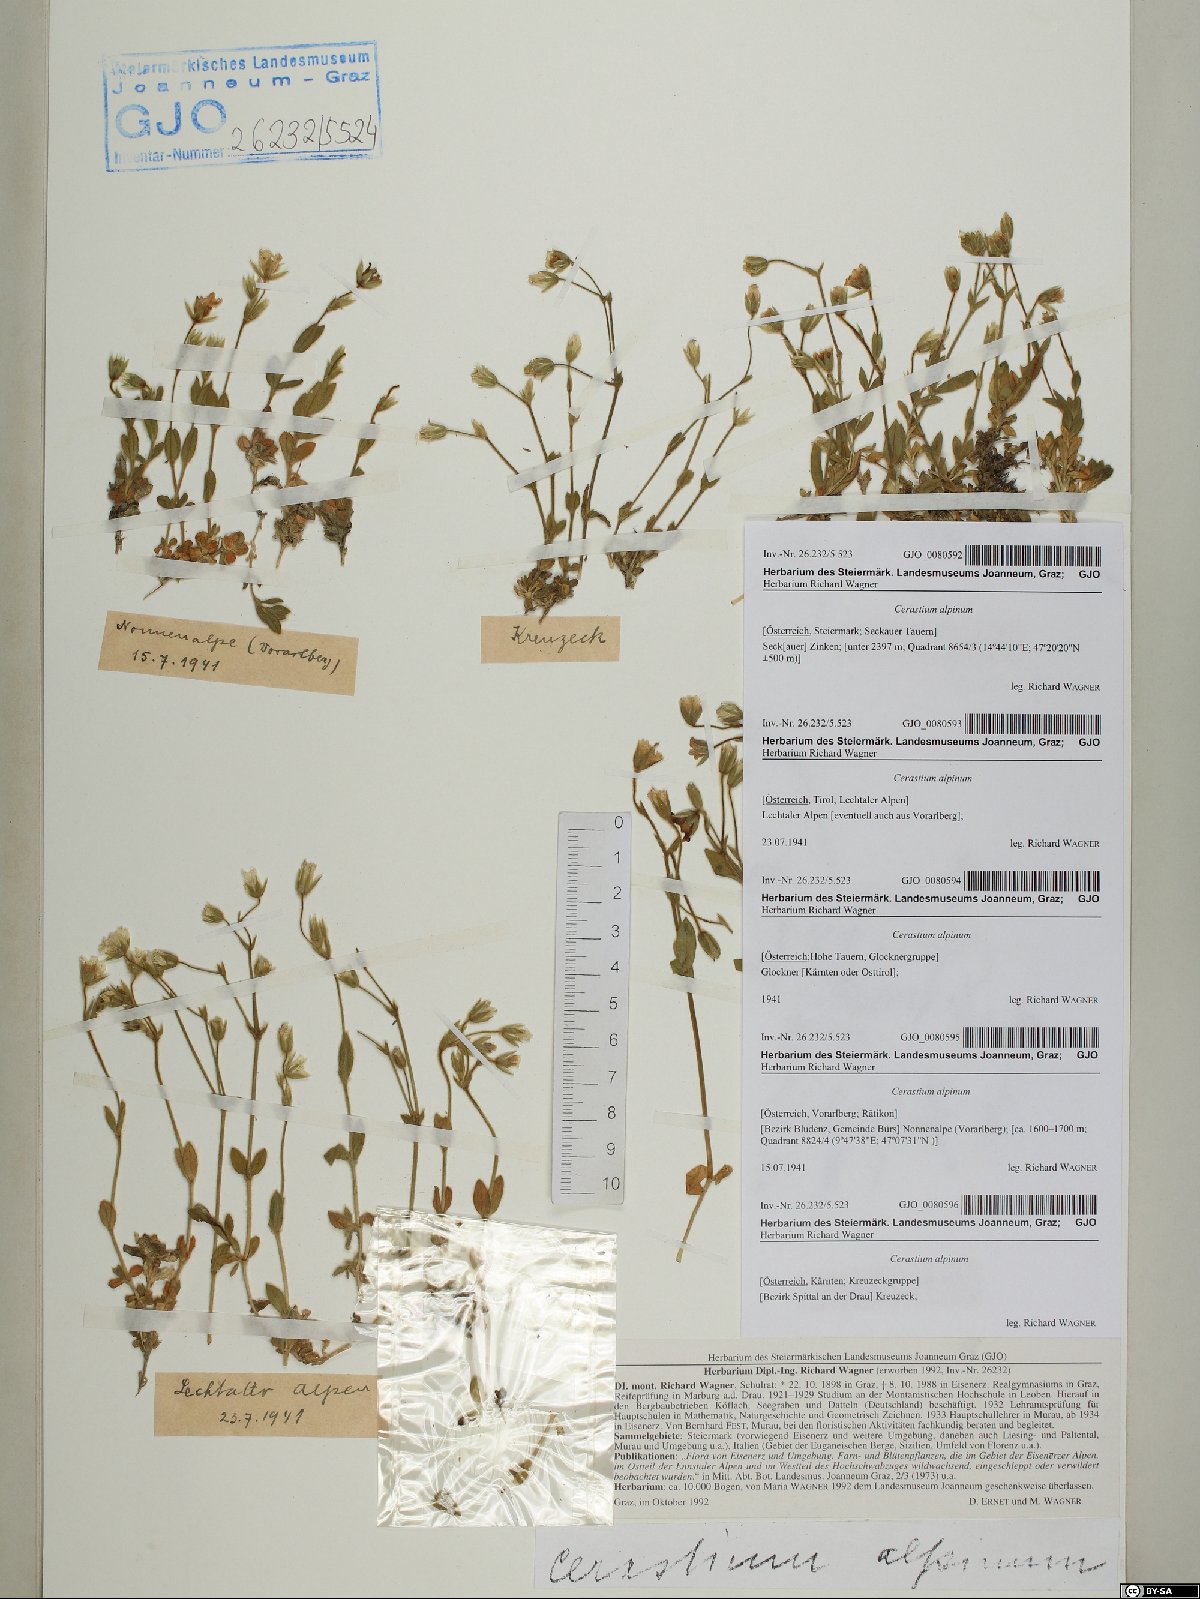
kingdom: Plantae
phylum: Tracheophyta
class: Magnoliopsida
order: Caryophyllales
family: Caryophyllaceae
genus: Cerastium
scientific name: Cerastium alpinum
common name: Alpine mouse-ear
